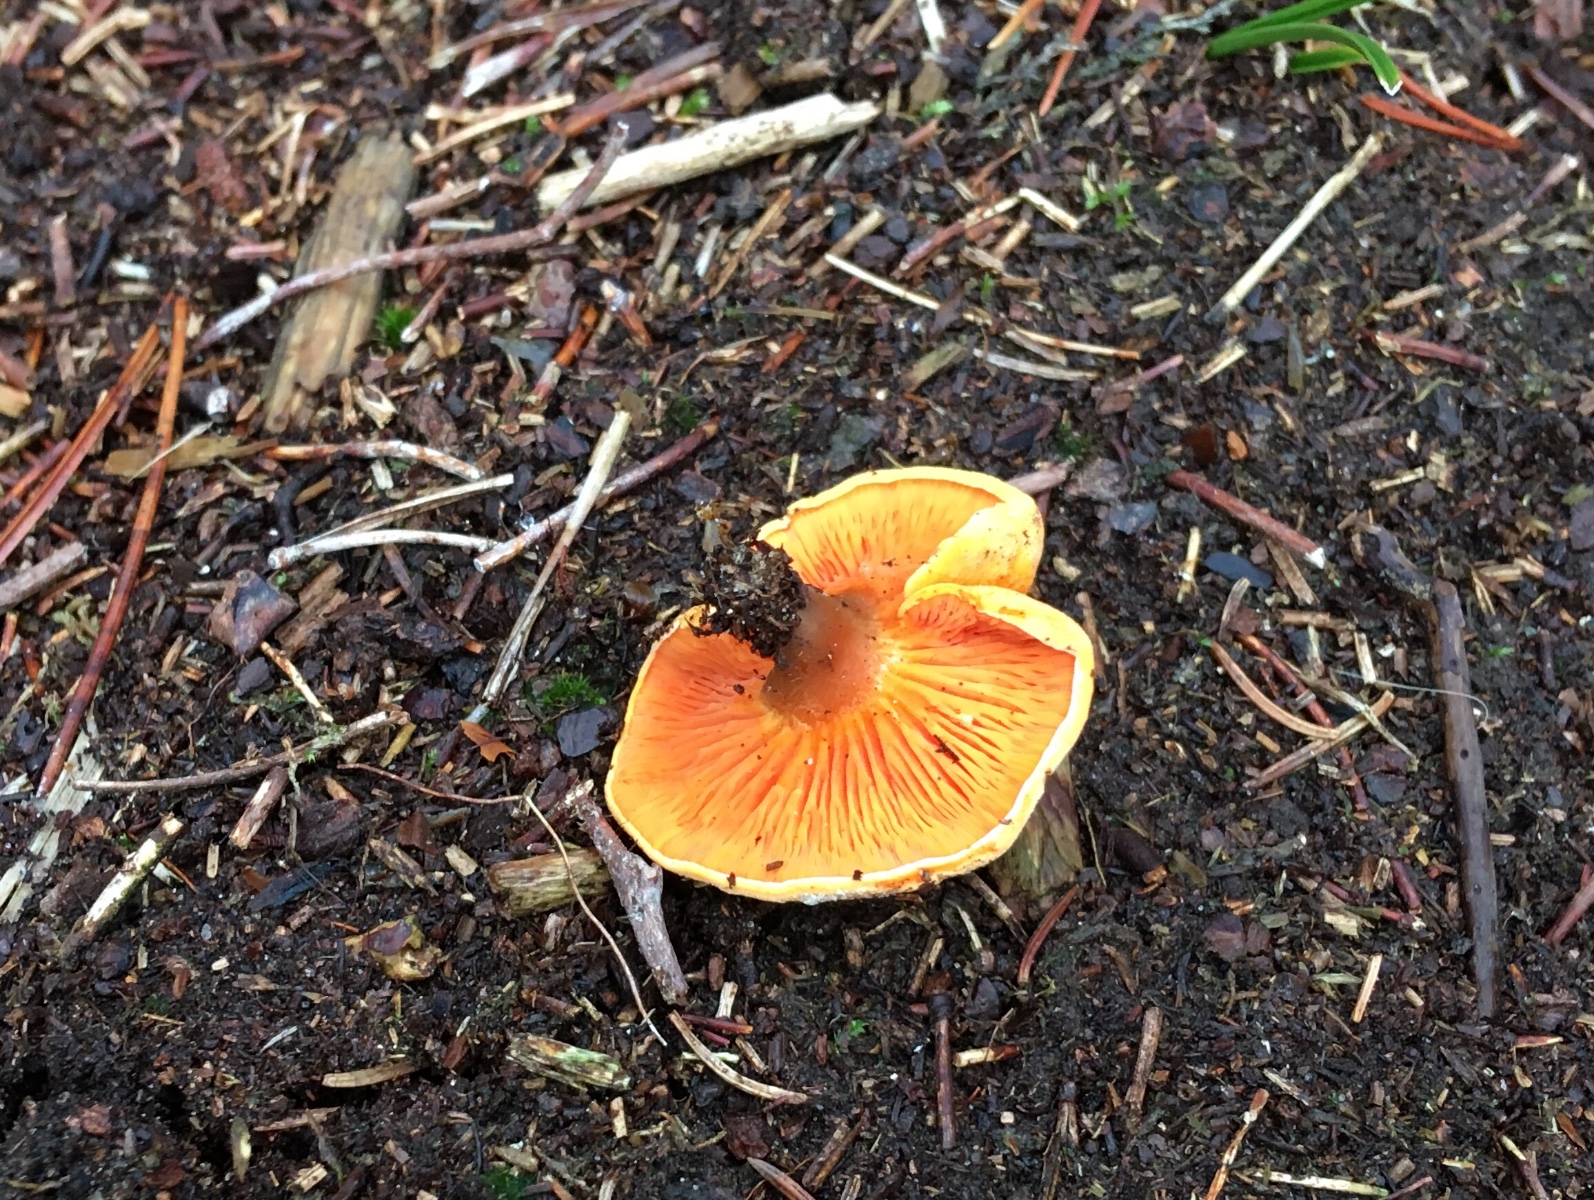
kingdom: Fungi
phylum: Basidiomycota
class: Agaricomycetes
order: Boletales
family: Hygrophoropsidaceae
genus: Hygrophoropsis
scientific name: Hygrophoropsis aurantiaca
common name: almindelig orangekantarel
